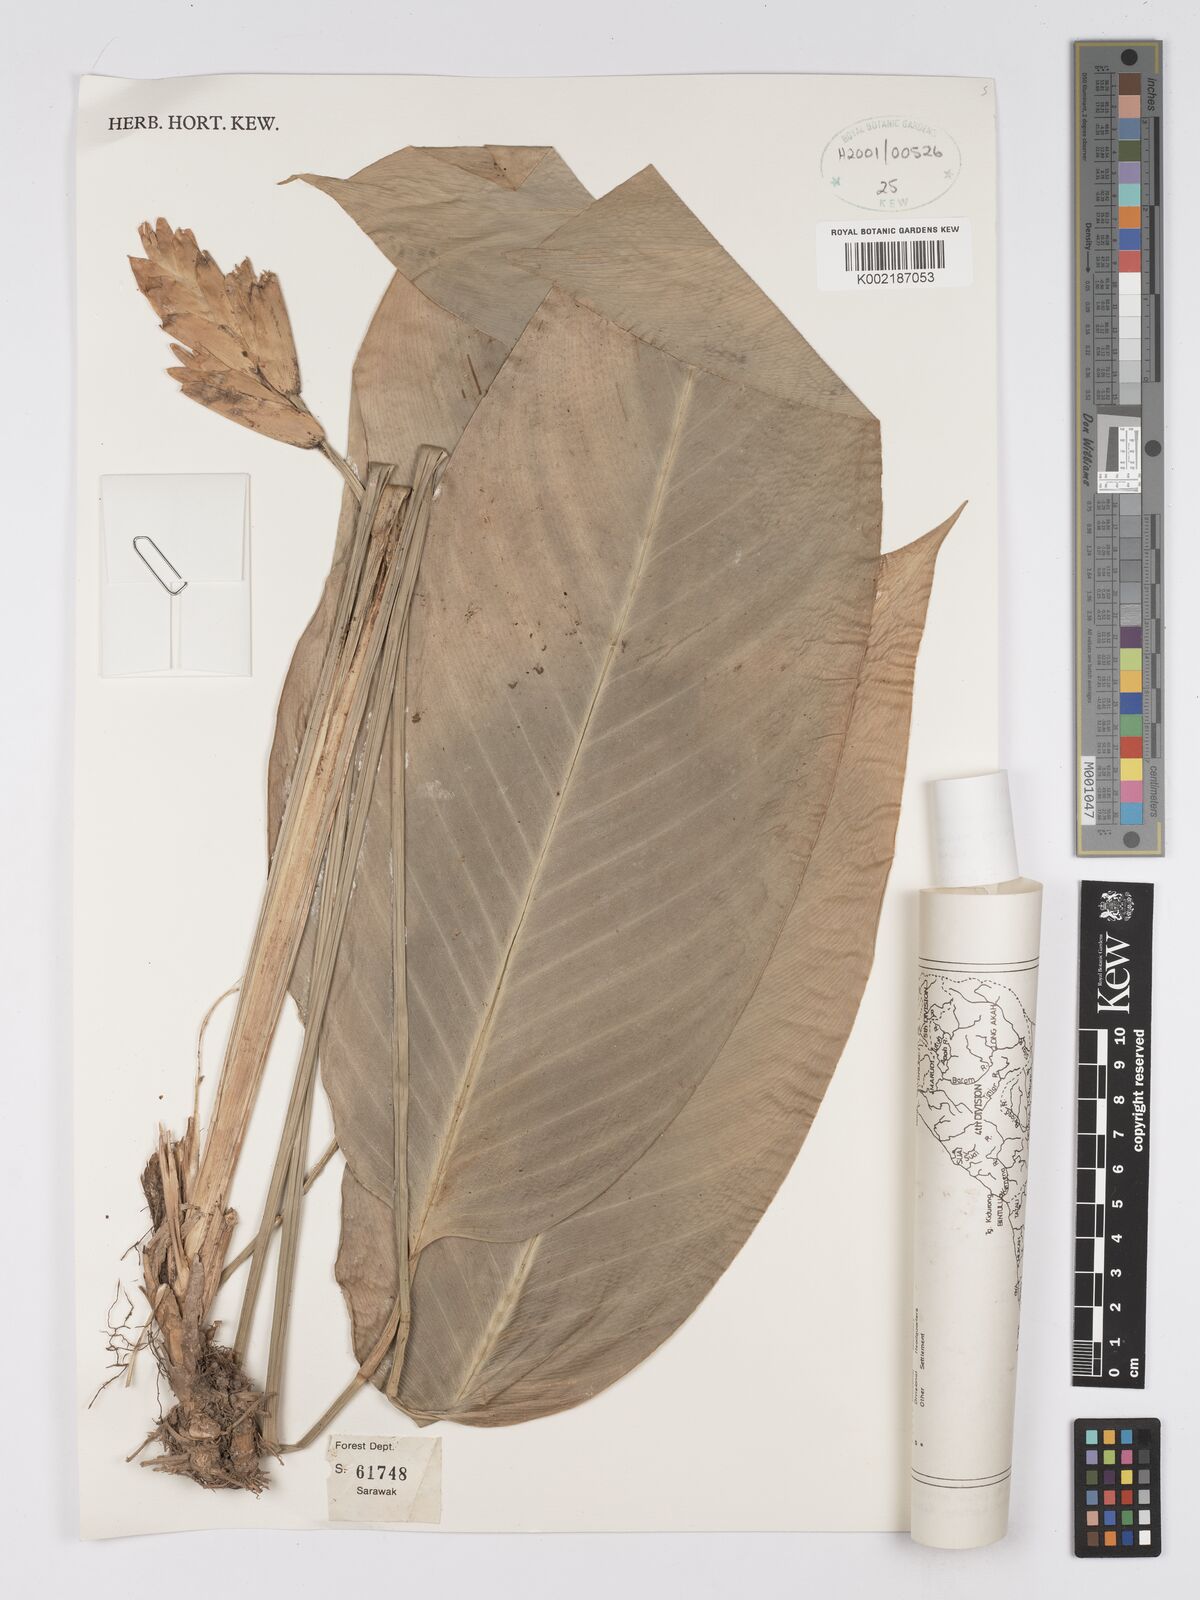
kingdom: Plantae
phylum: Tracheophyta
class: Liliopsida
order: Zingiberales
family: Marantaceae
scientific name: Marantaceae
